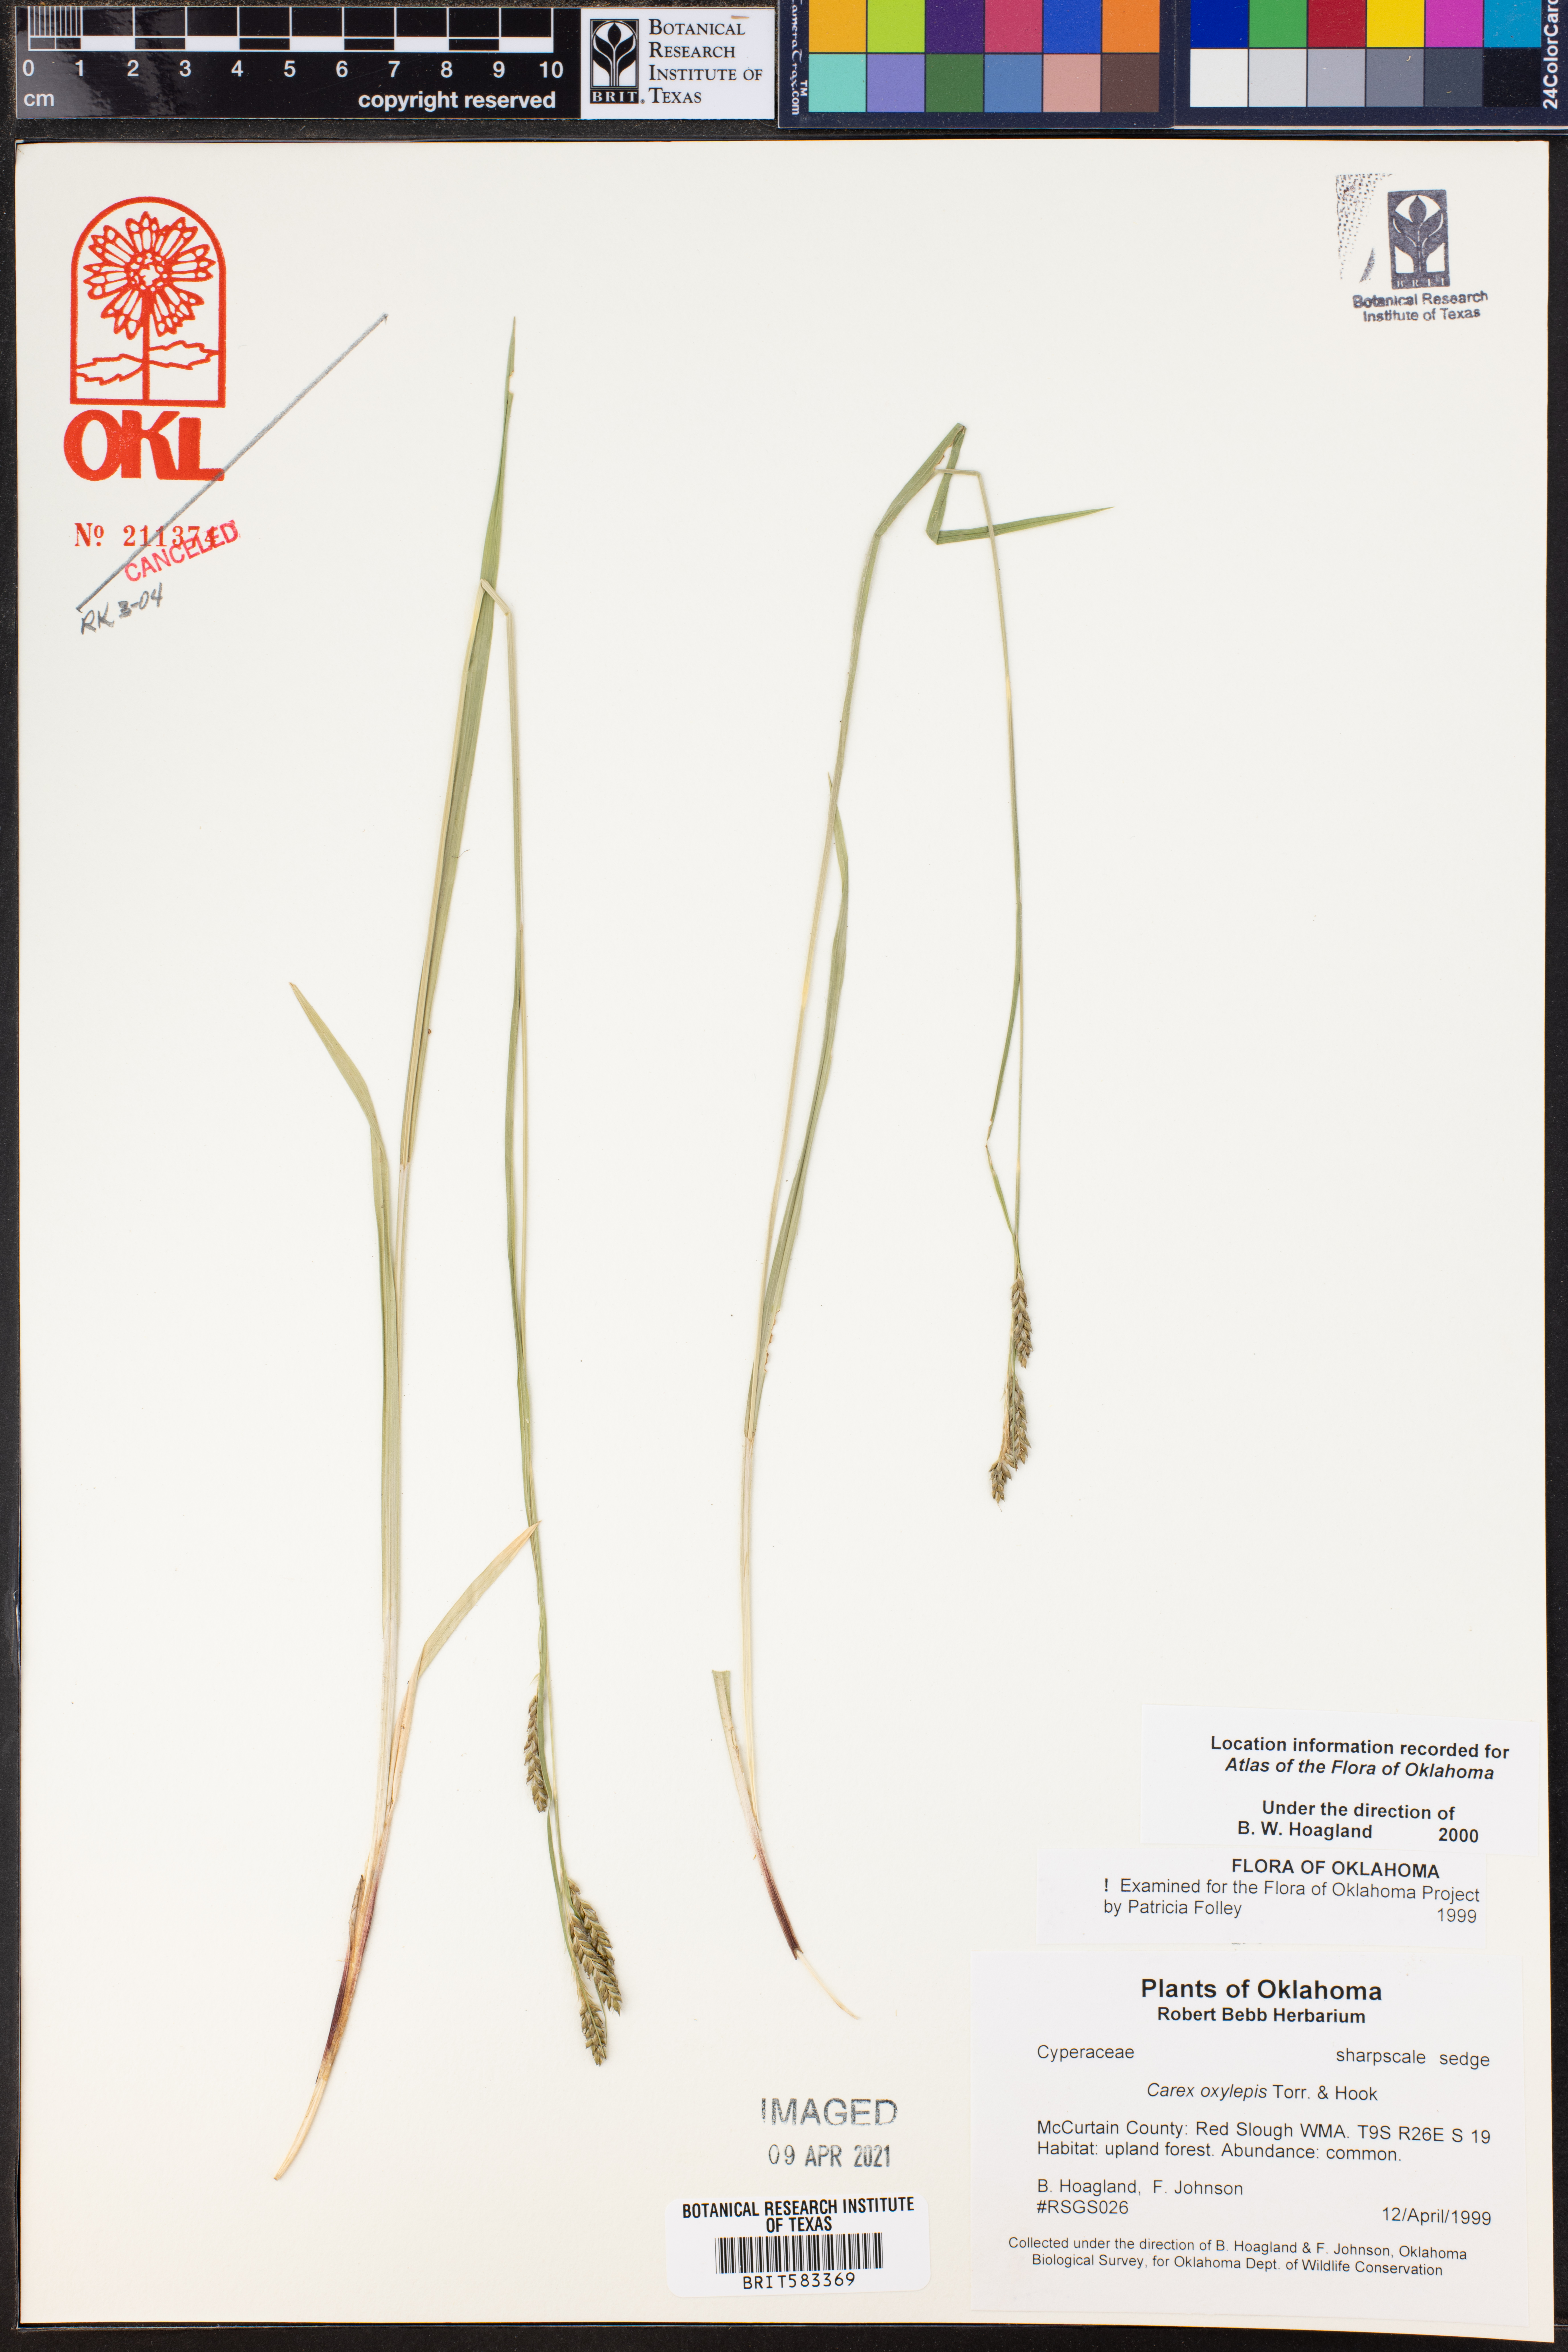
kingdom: Plantae
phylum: Tracheophyta
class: Liliopsida
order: Poales
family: Cyperaceae
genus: Carex
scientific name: Carex oxyandra
